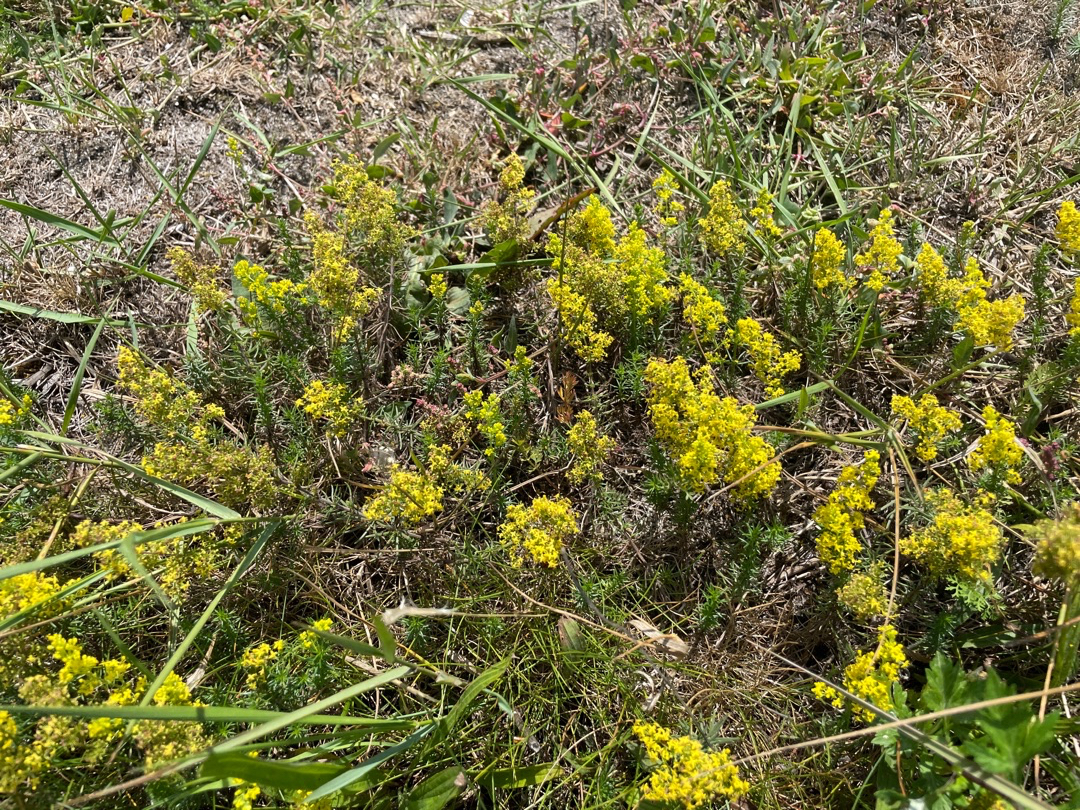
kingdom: Plantae
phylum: Tracheophyta
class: Magnoliopsida
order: Gentianales
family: Rubiaceae
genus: Galium
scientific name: Galium verum
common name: Gul snerre
